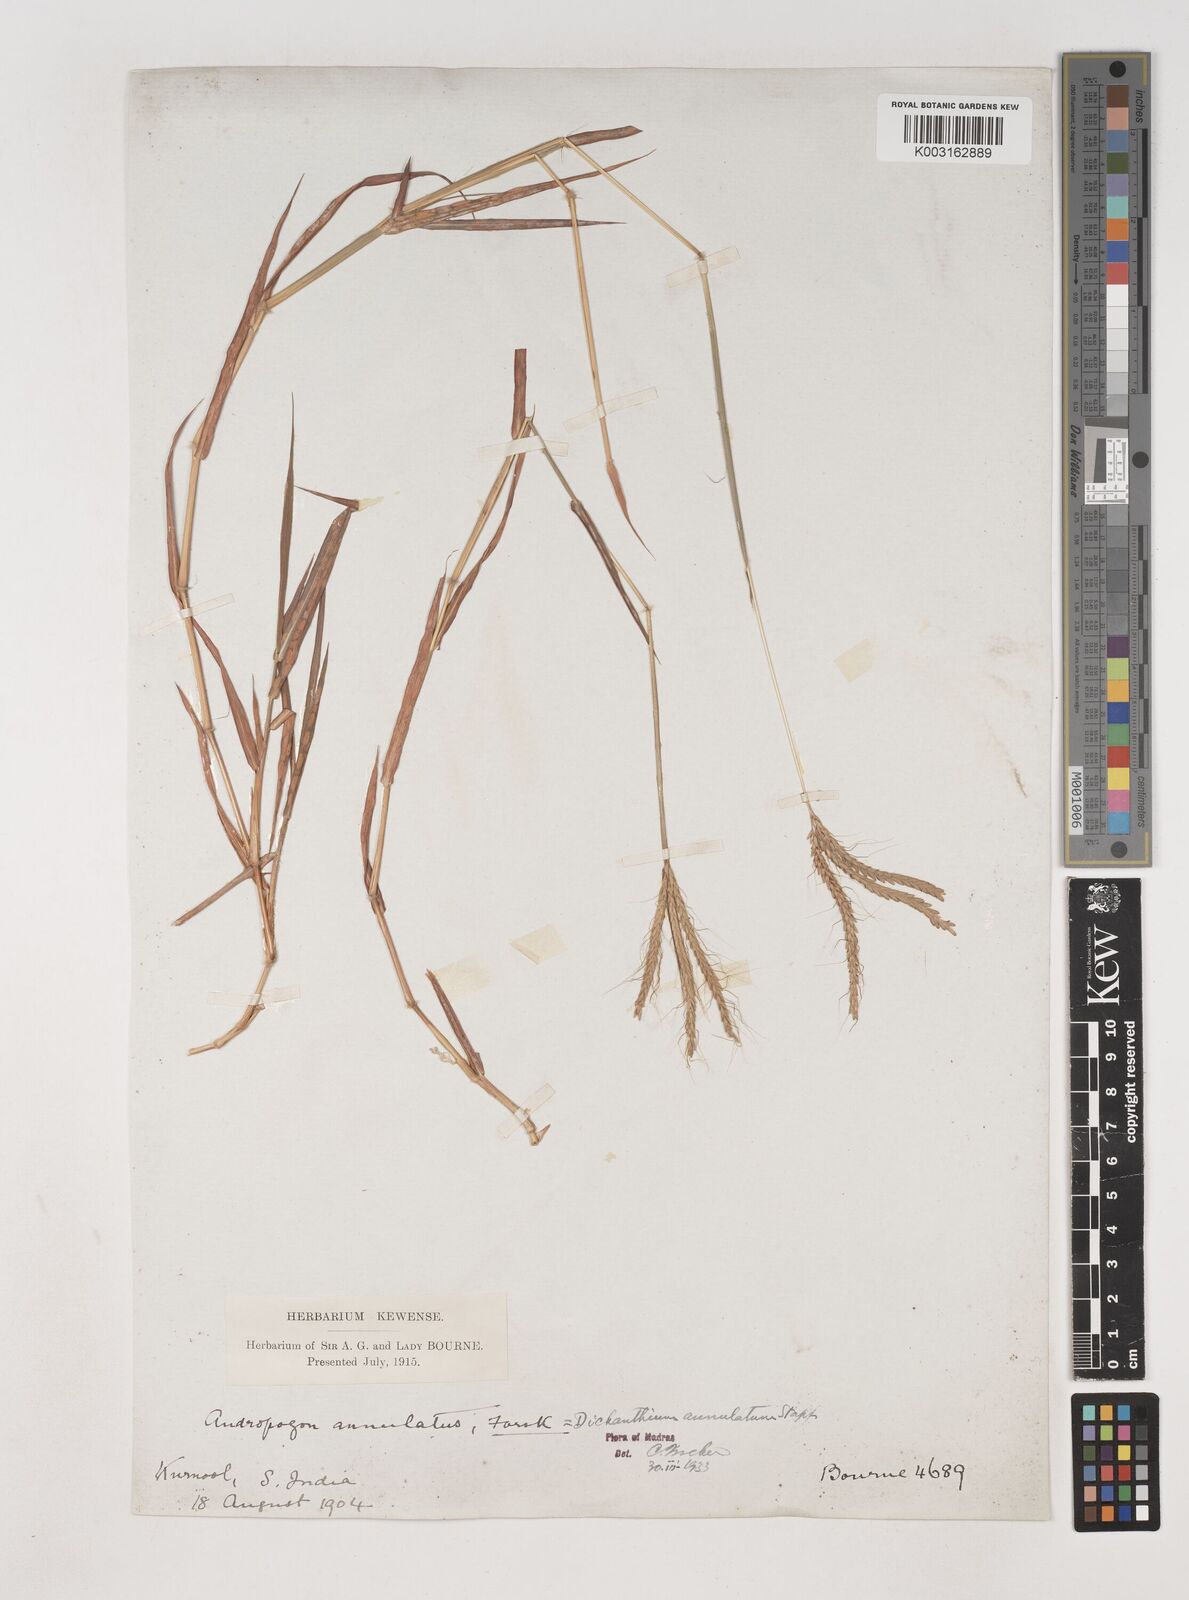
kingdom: Plantae
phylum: Tracheophyta
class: Liliopsida
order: Poales
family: Poaceae
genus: Dichanthium
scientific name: Dichanthium annulatum
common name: Kleberg's bluestem
